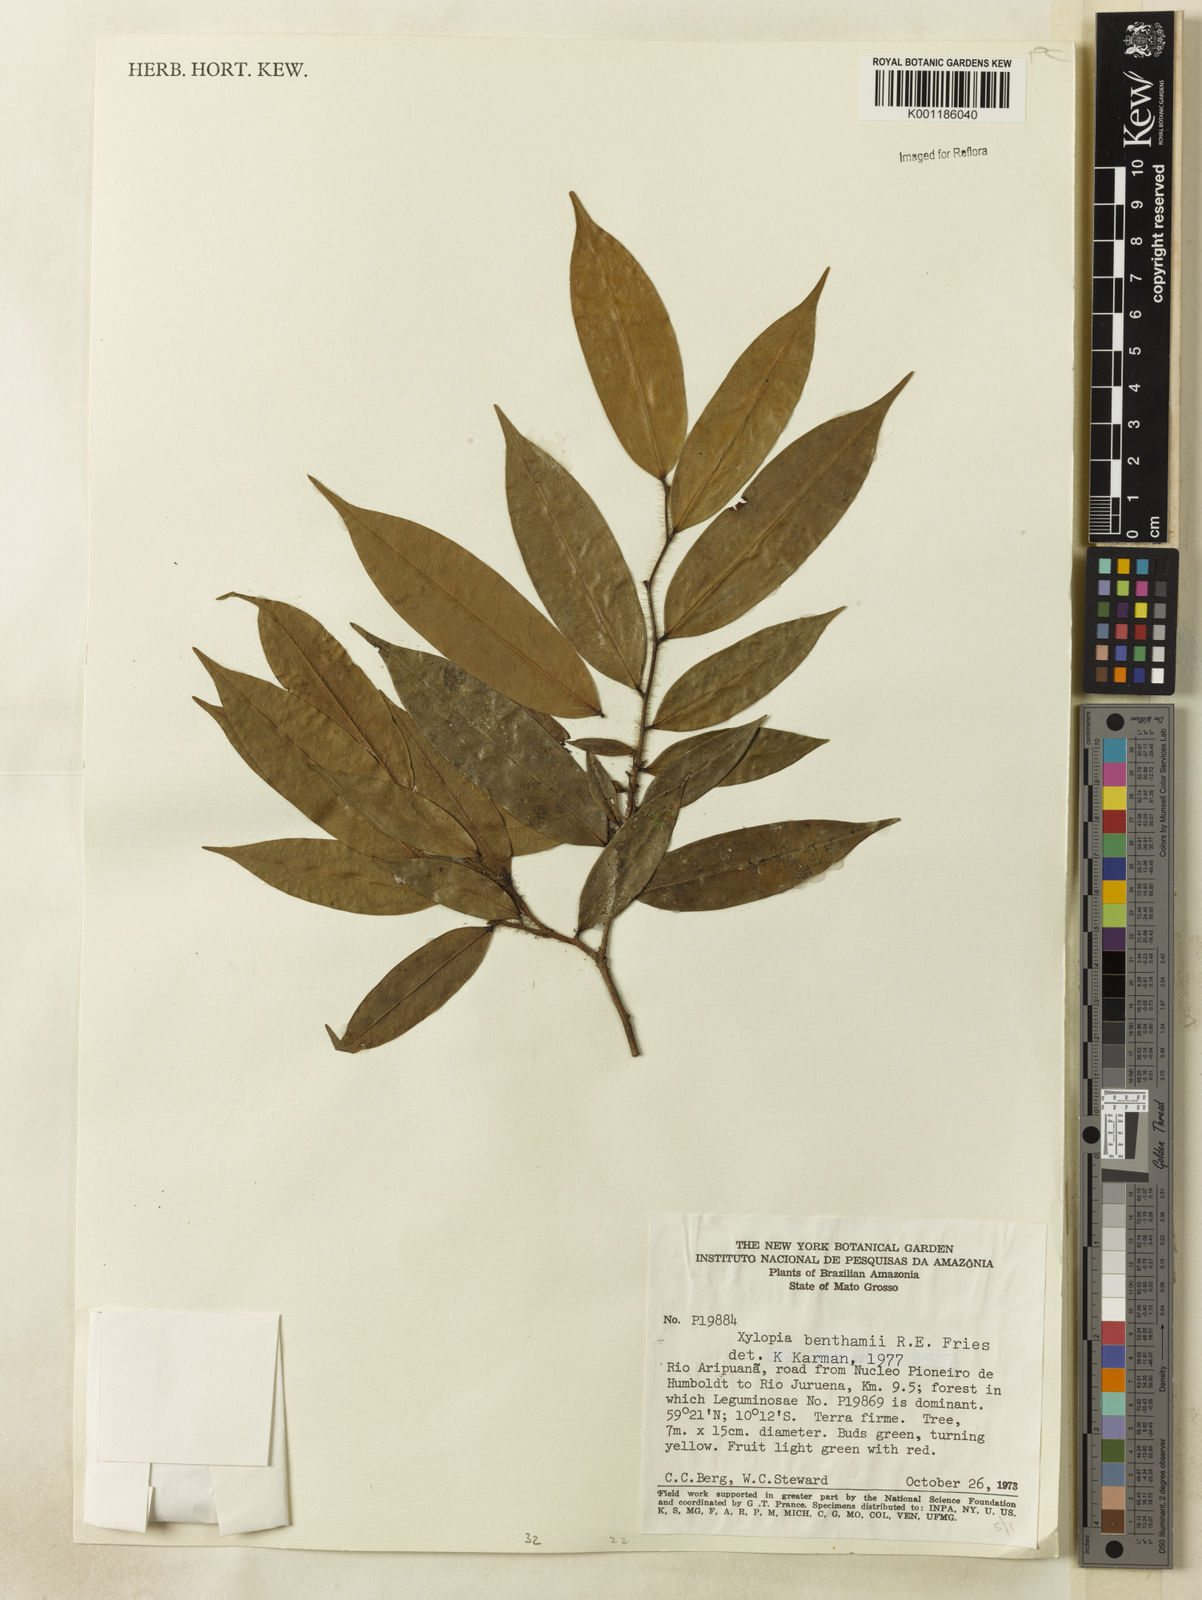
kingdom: Plantae
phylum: Tracheophyta
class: Magnoliopsida
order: Magnoliales
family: Annonaceae
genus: Xylopia
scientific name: Xylopia benthamii
